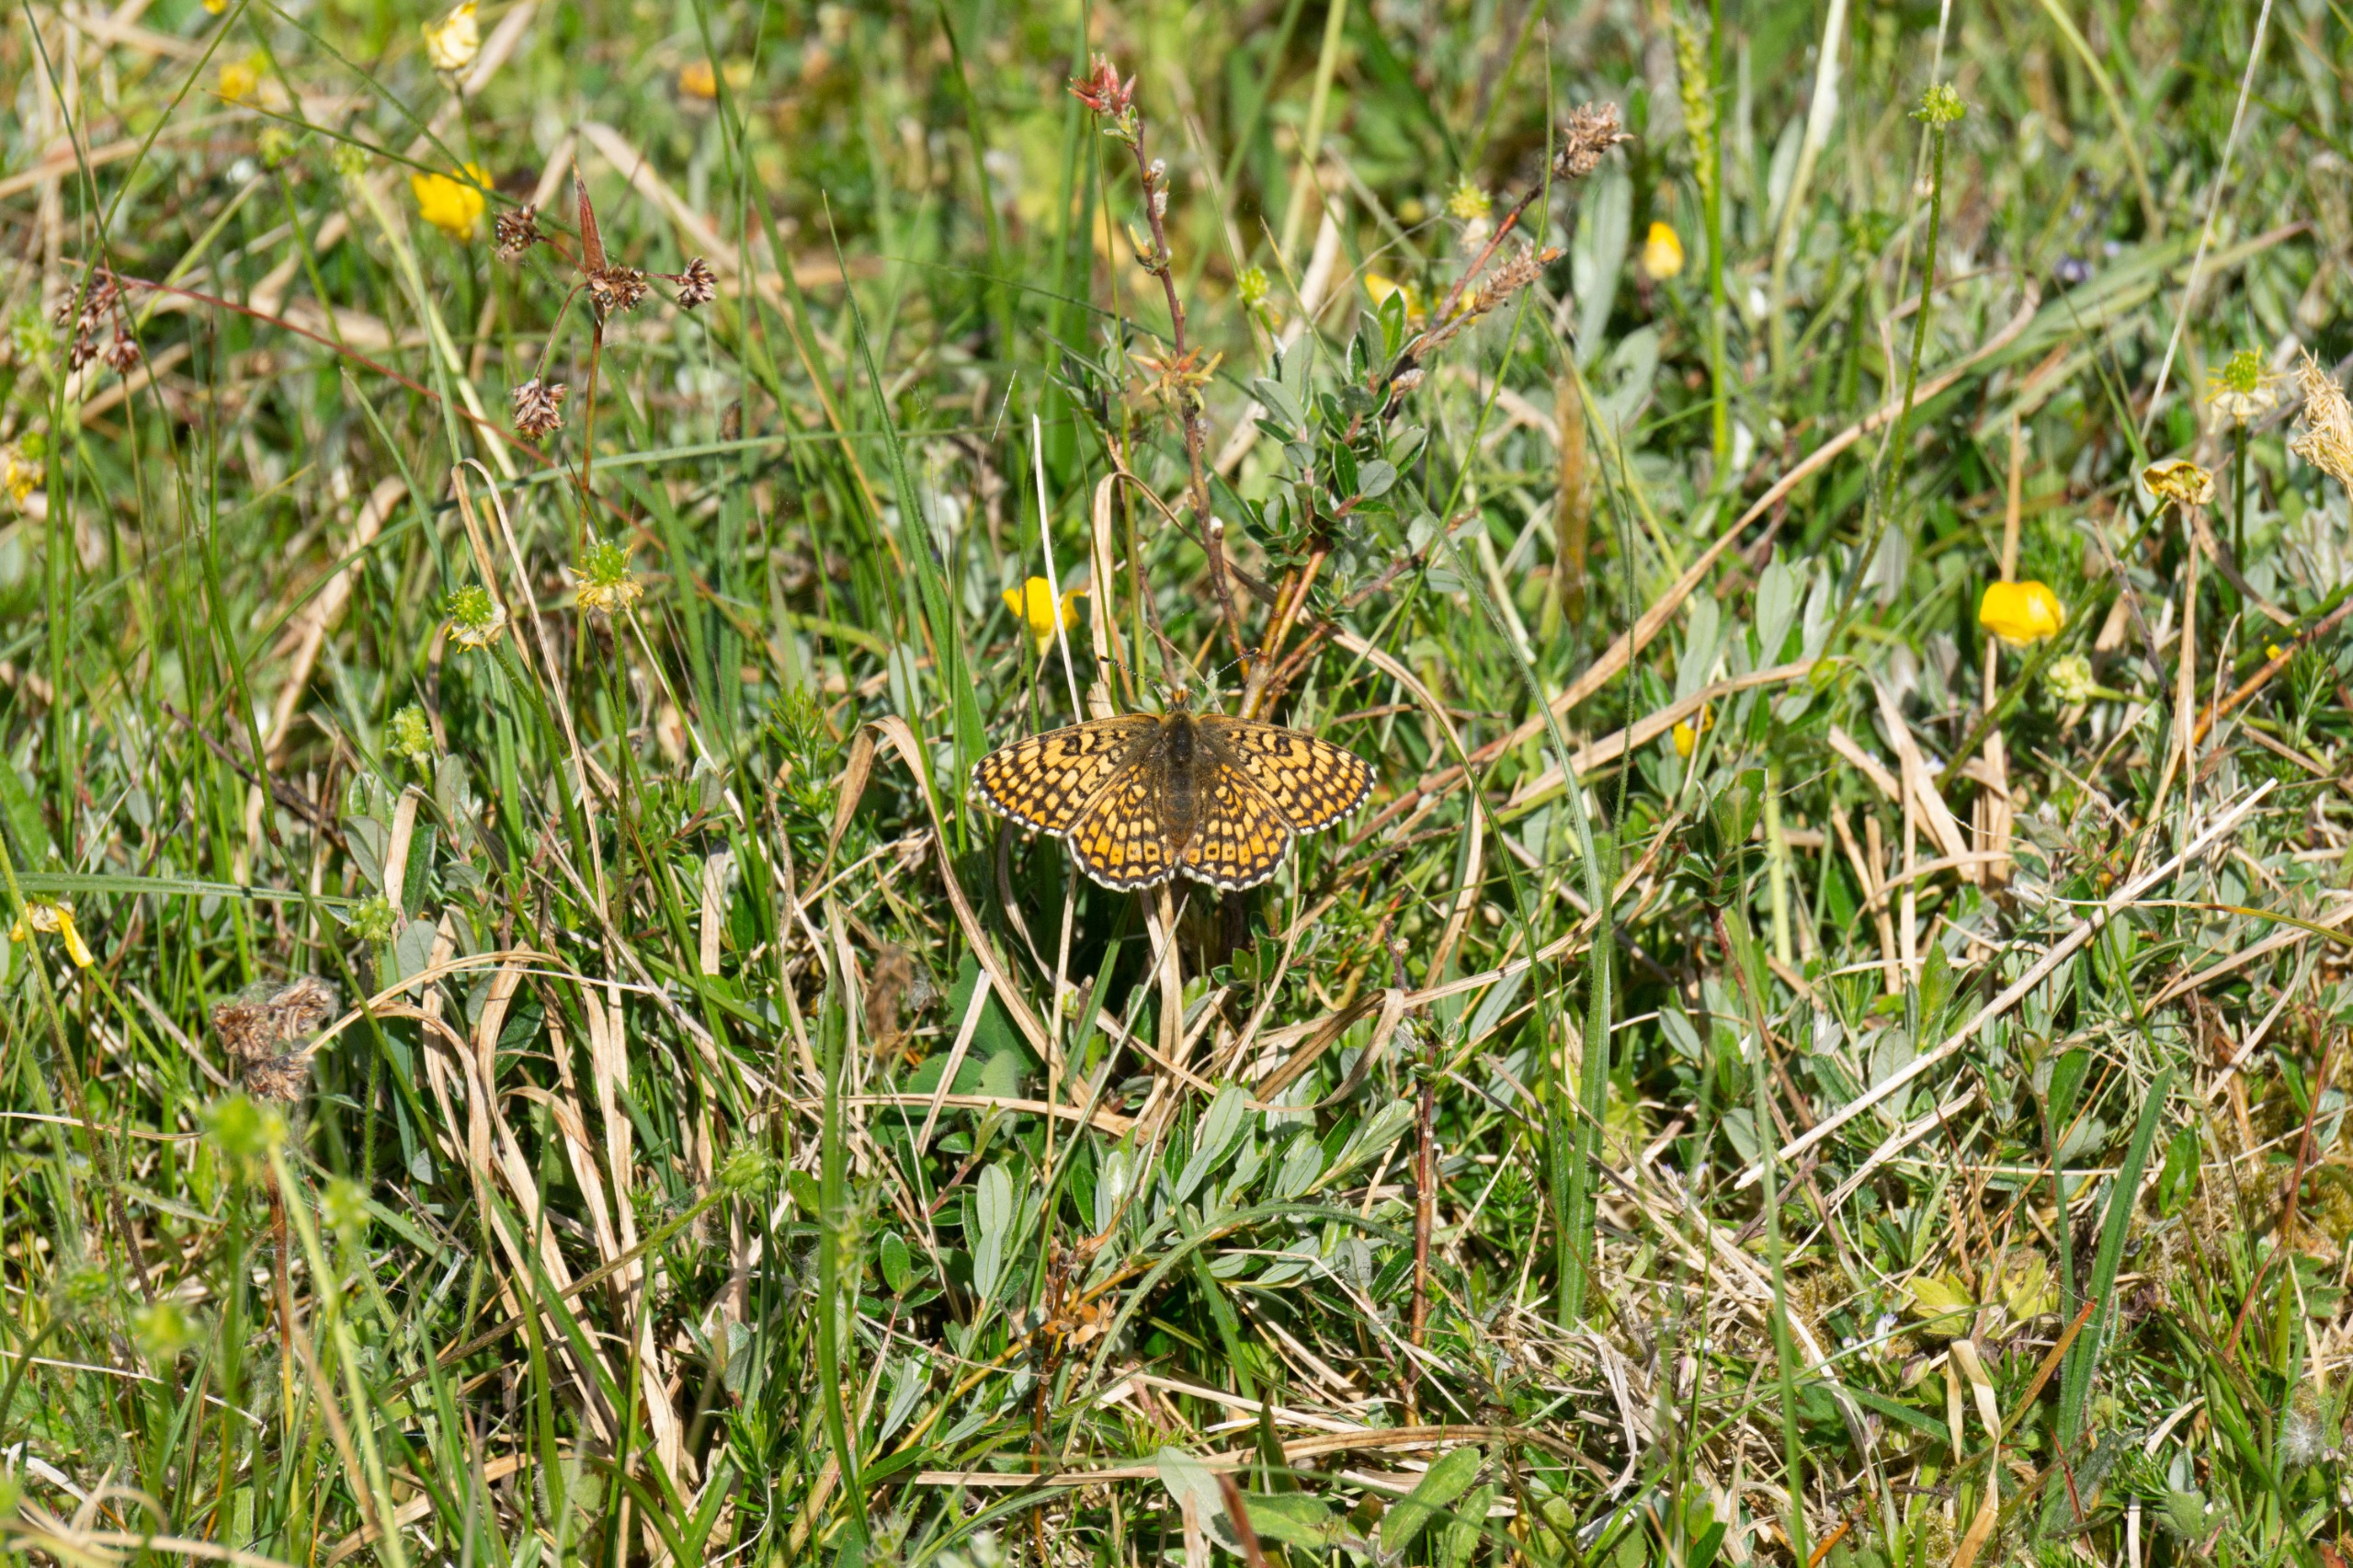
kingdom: Animalia
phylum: Arthropoda
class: Insecta
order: Lepidoptera
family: Nymphalidae
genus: Melitaea
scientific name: Melitaea cinxia
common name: Okkergul pletvinge
